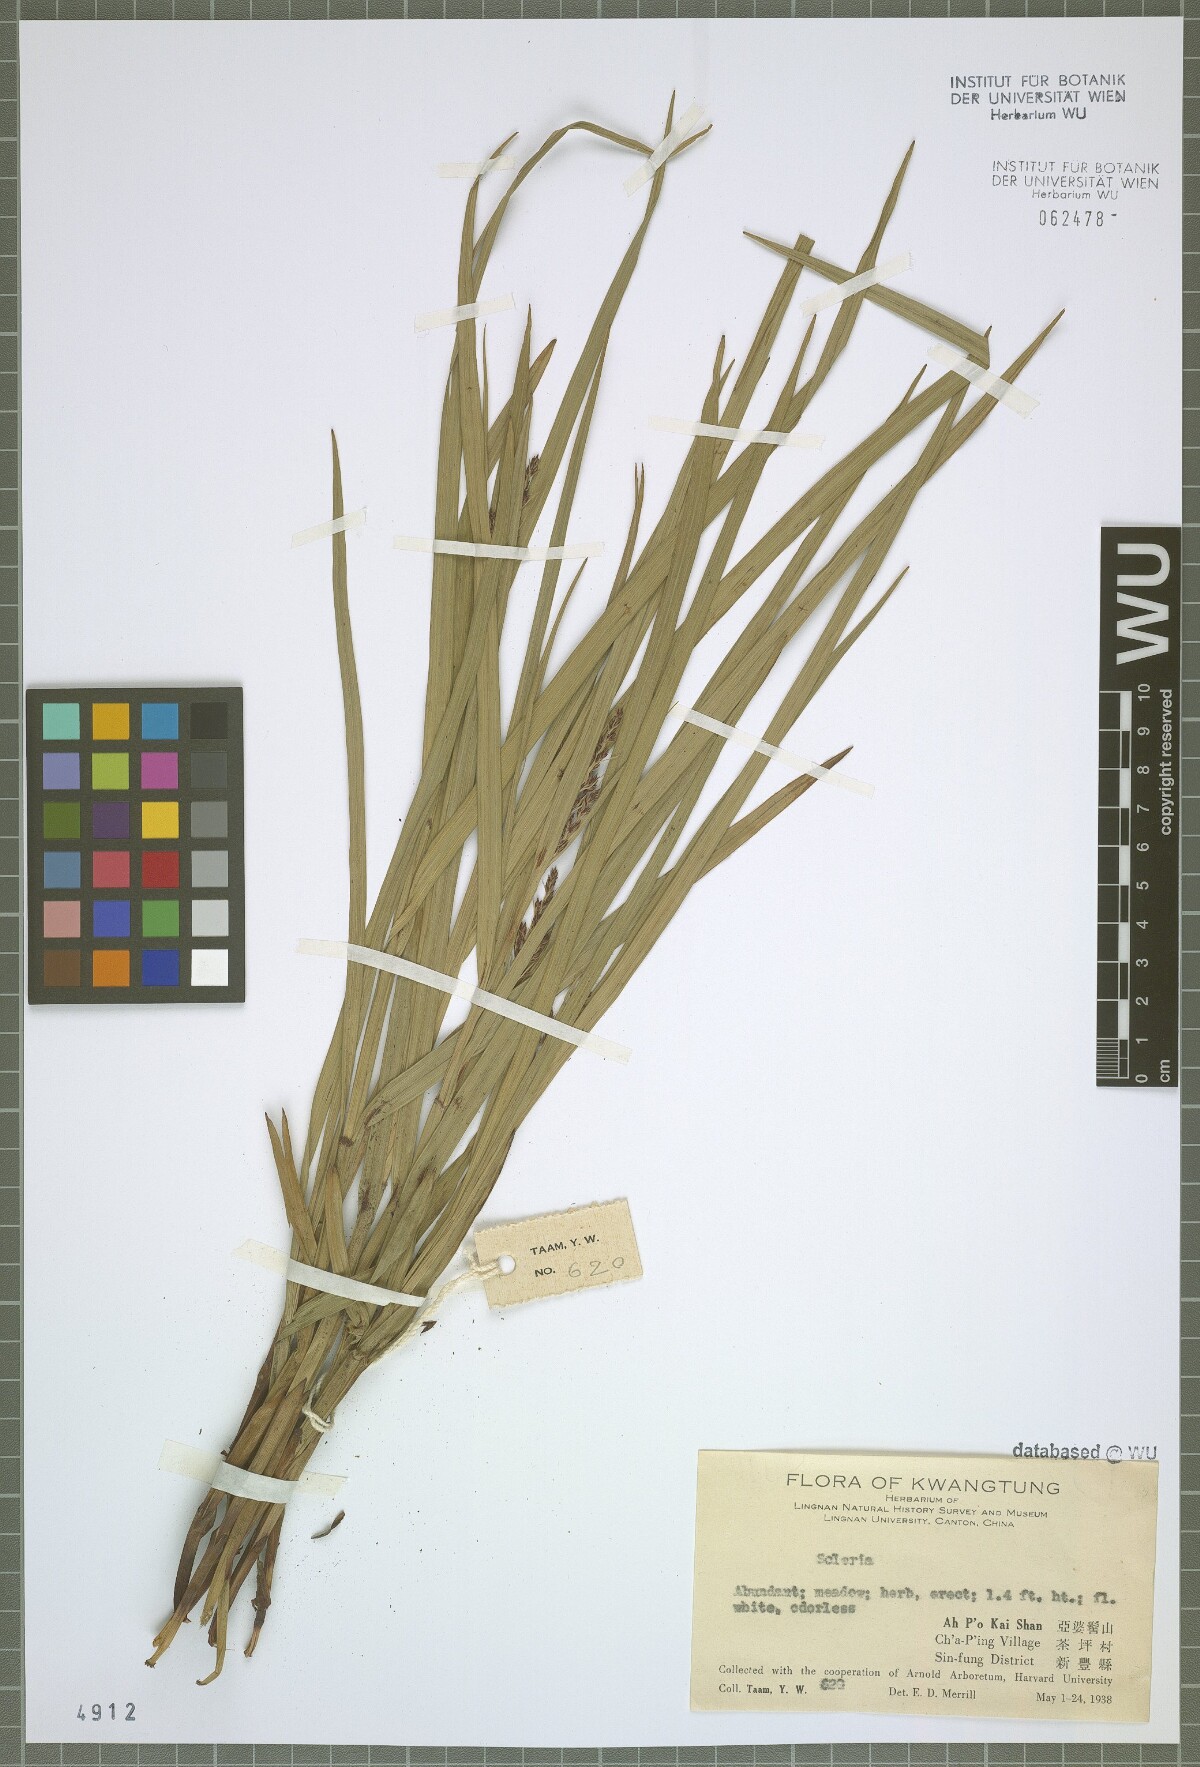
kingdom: Plantae
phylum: Tracheophyta
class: Liliopsida
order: Poales
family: Cyperaceae
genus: Scleria
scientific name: Scleria
